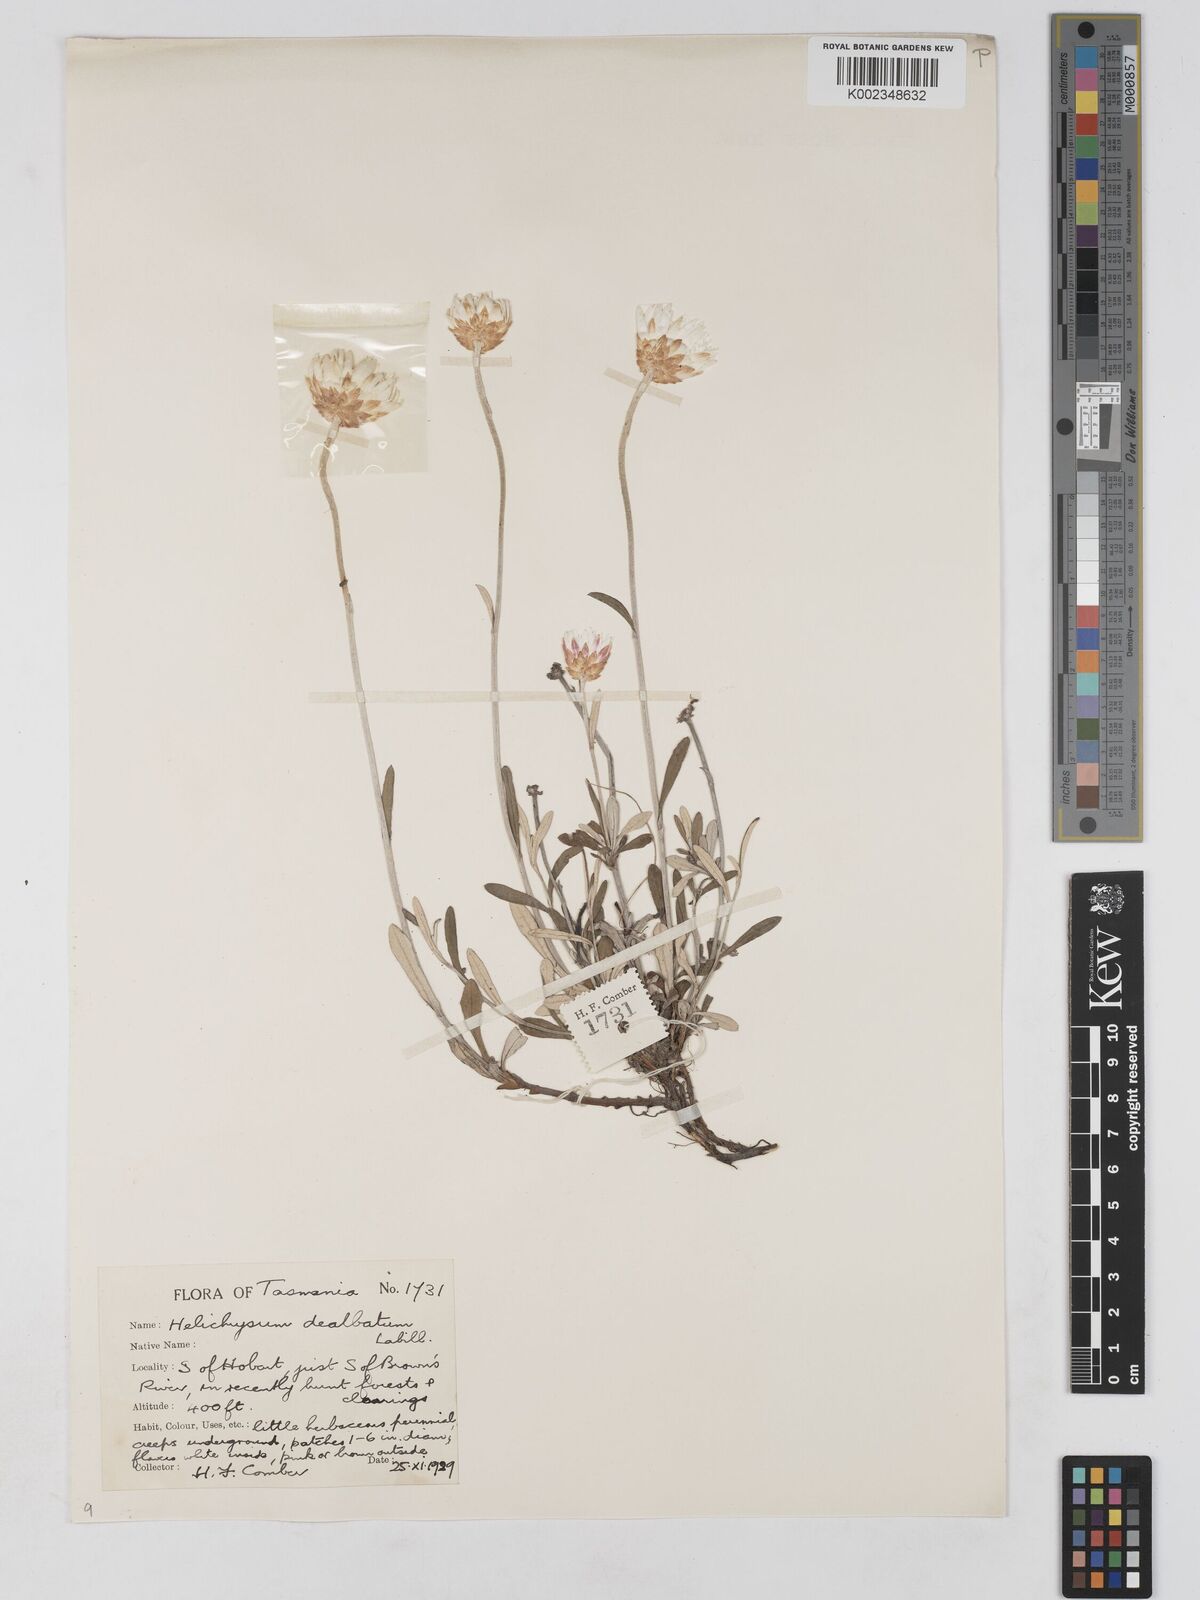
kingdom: Plantae
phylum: Tracheophyta
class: Magnoliopsida
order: Asterales
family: Asteraceae
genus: Argentipallium
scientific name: Argentipallium dealbatum
